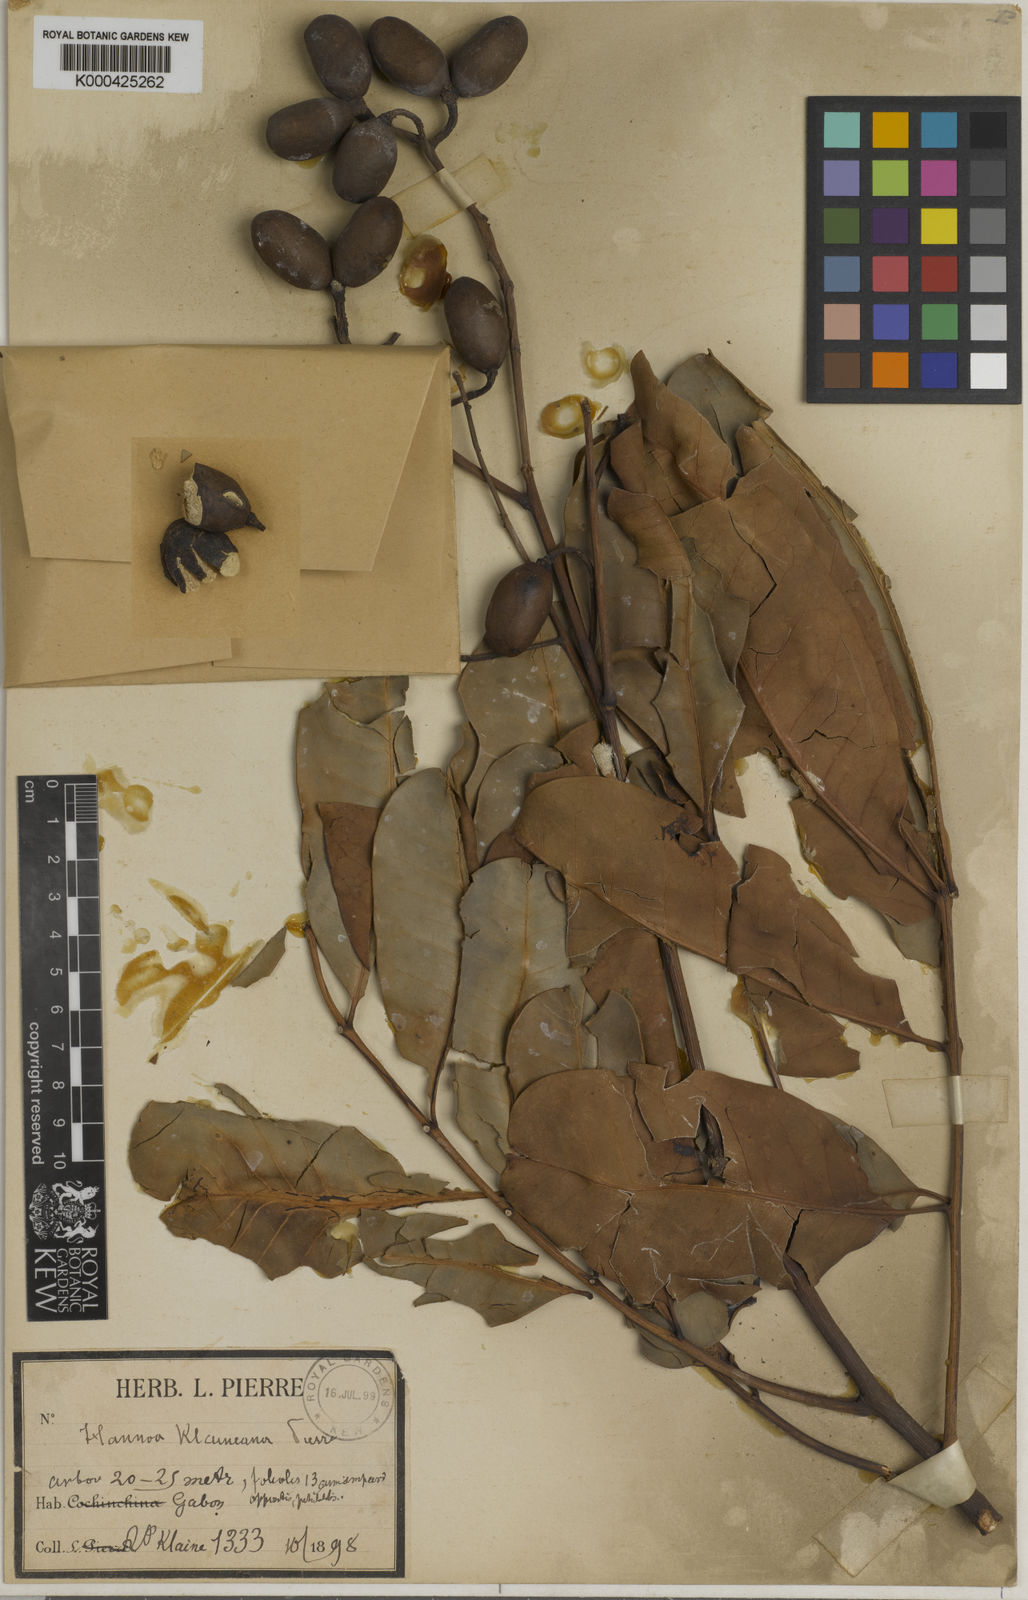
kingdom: Plantae
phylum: Tracheophyta
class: Magnoliopsida
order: Sapindales
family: Simaroubaceae
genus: Odyendyea
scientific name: Odyendyea klaineana
